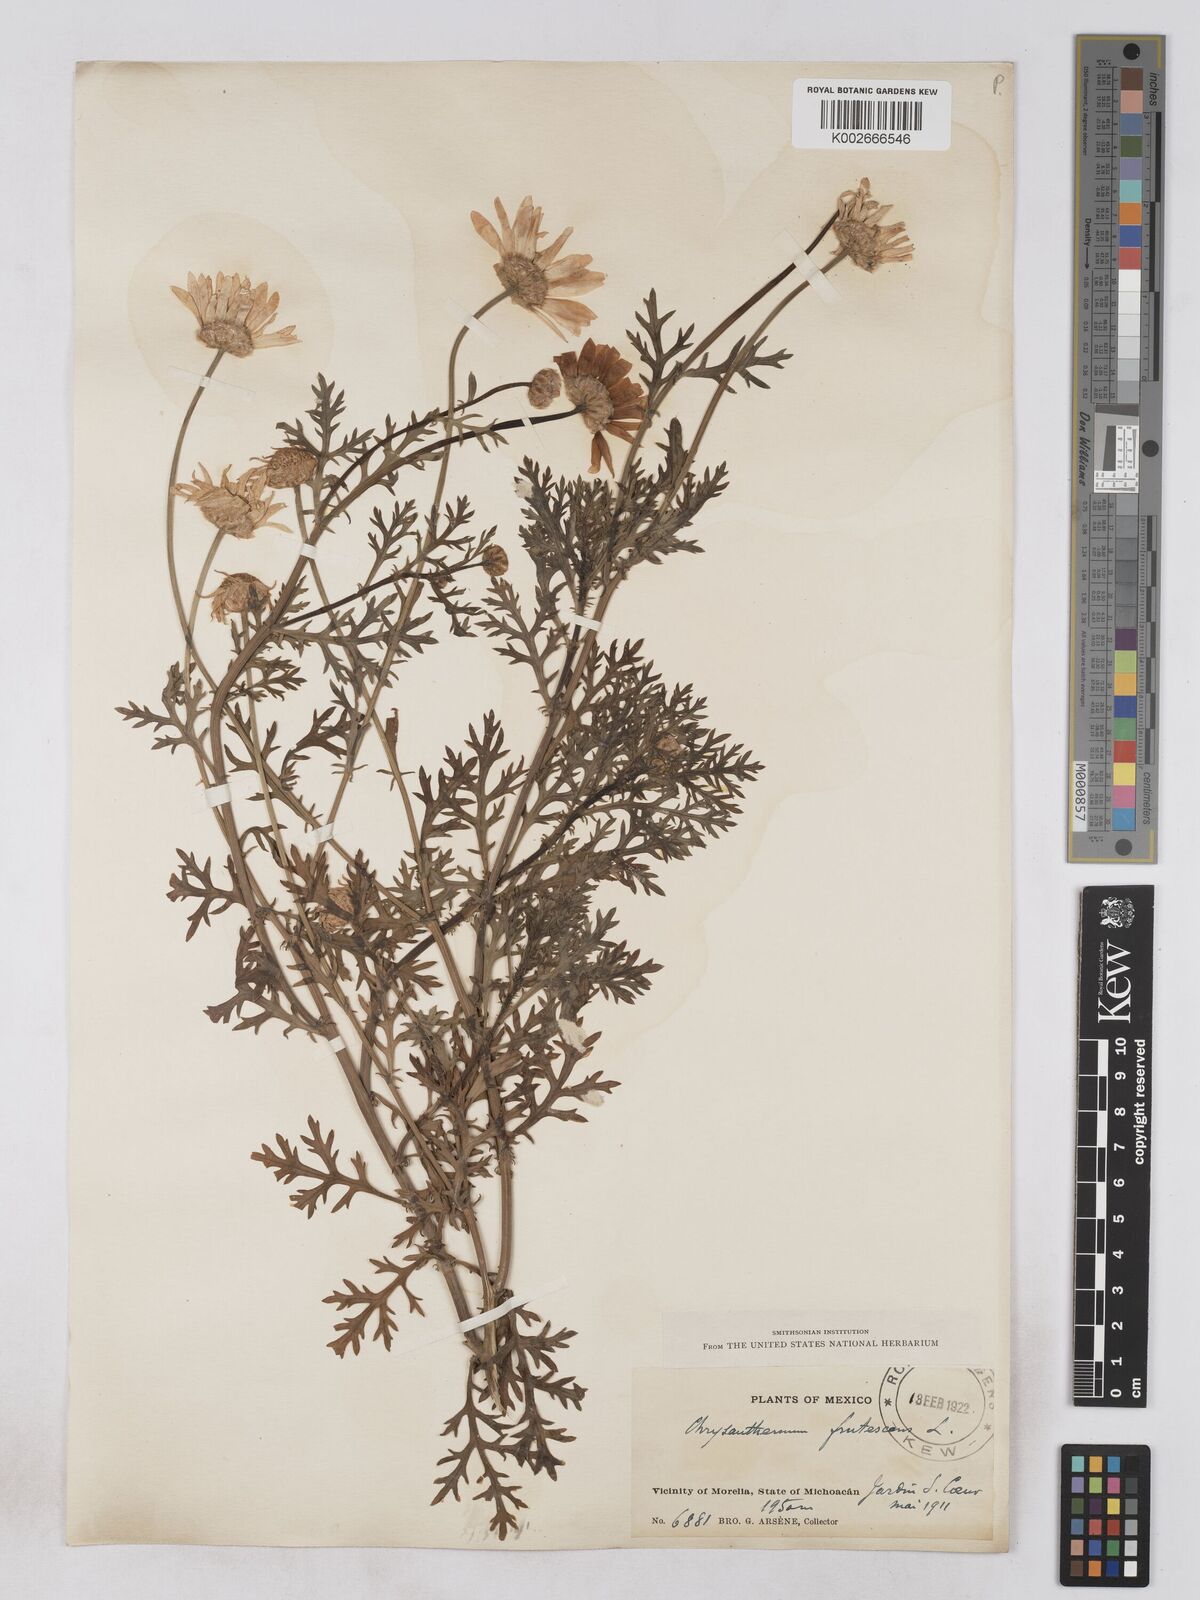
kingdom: Plantae
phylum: Tracheophyta
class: Magnoliopsida
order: Asterales
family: Asteraceae
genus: Argyranthemum
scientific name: Argyranthemum frutescens
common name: Paris daisy
